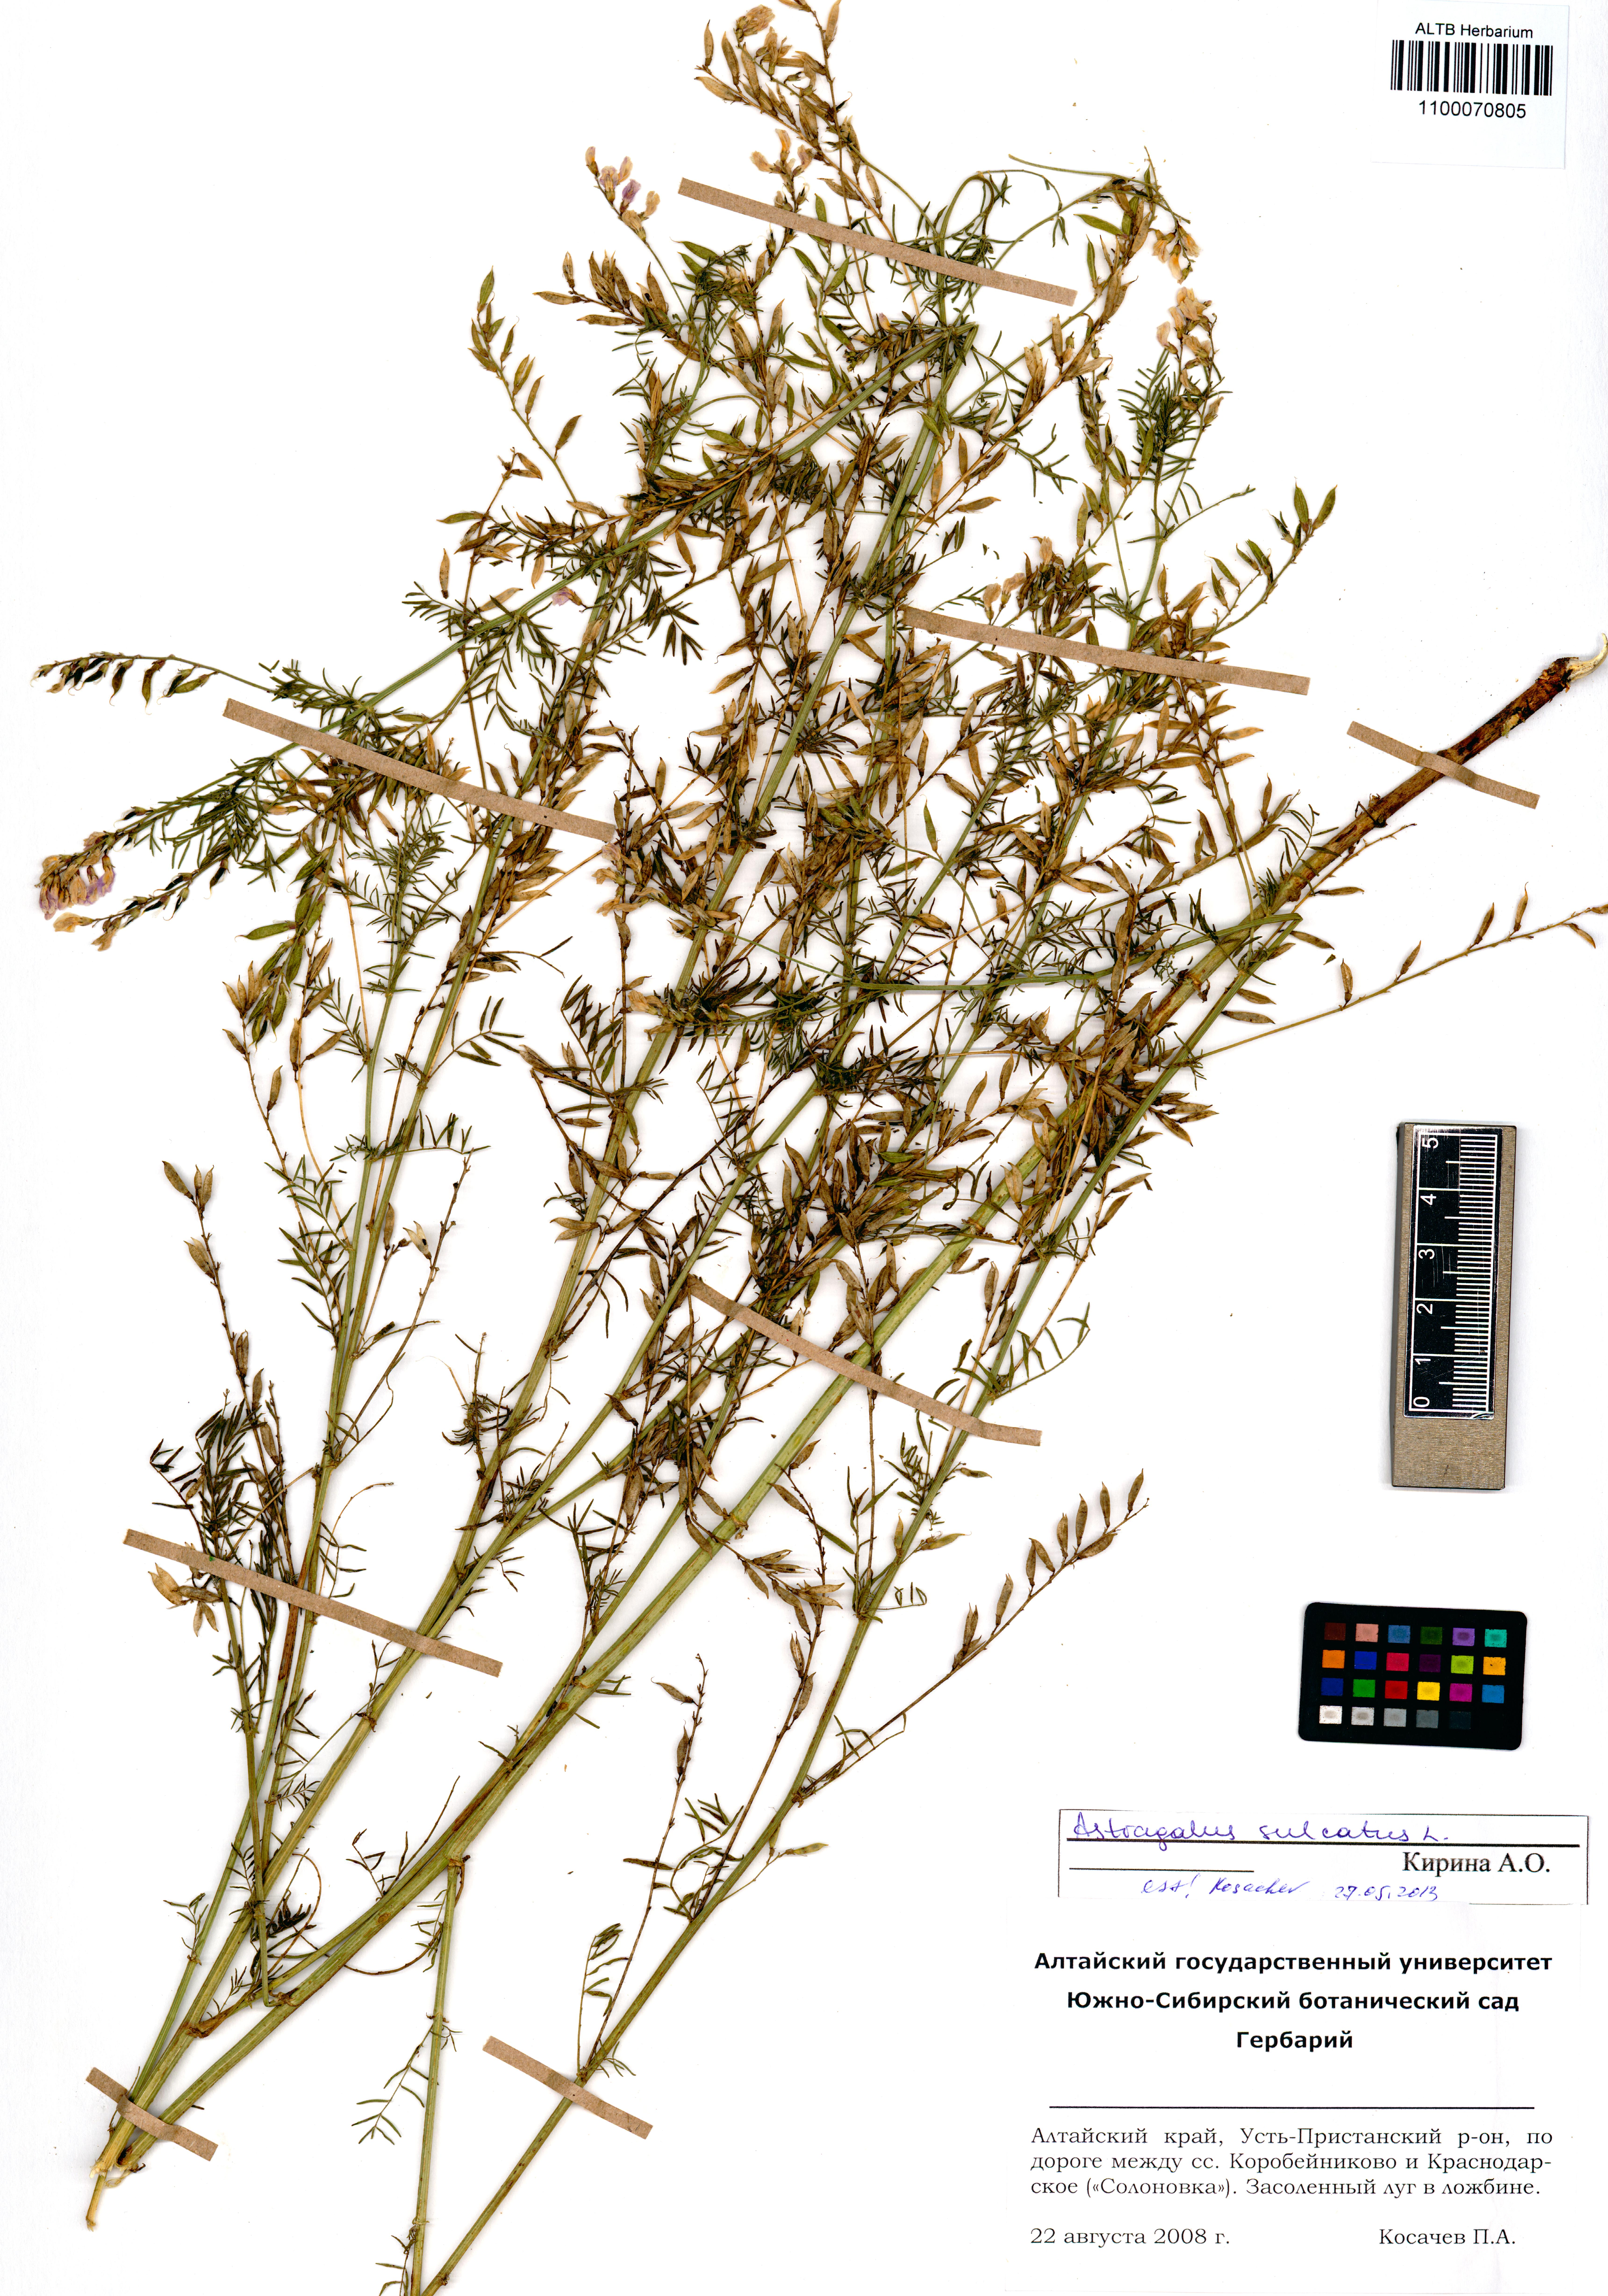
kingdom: Plantae
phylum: Tracheophyta
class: Magnoliopsida
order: Fabales
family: Fabaceae
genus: Astragalus
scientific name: Astragalus sulcatus
